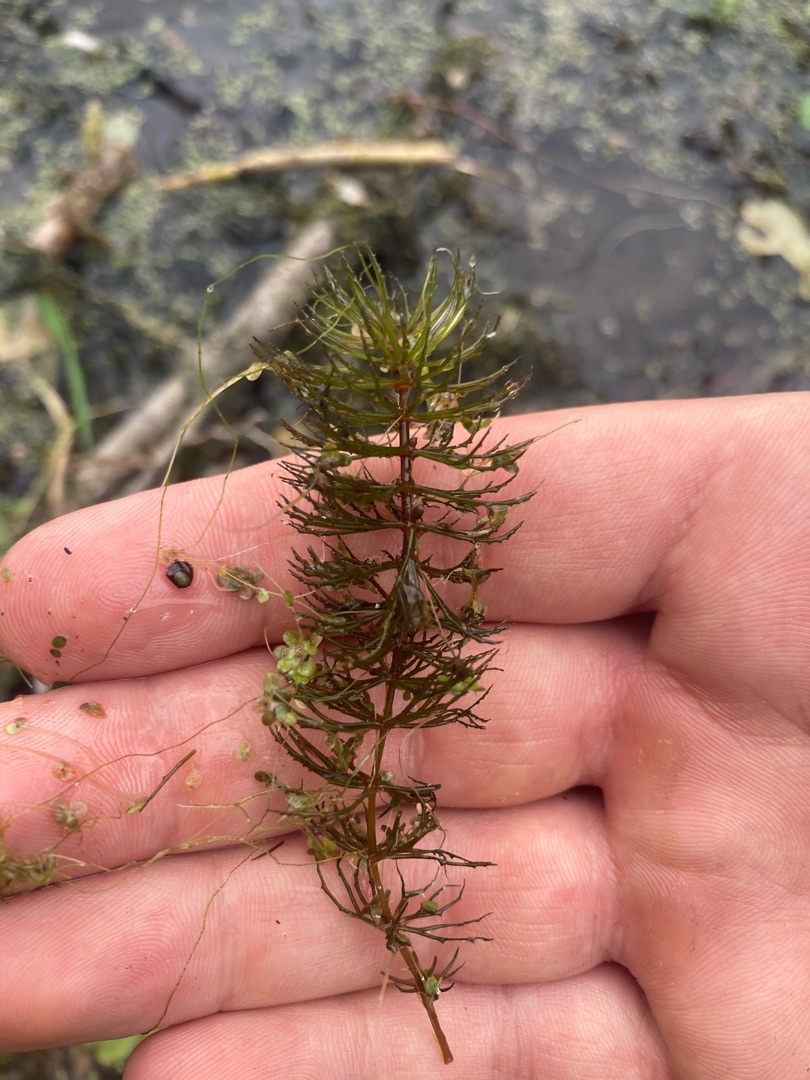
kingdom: Plantae
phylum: Tracheophyta
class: Magnoliopsida
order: Ceratophyllales
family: Ceratophyllaceae
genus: Ceratophyllum
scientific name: Ceratophyllum demersum
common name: Tornfrøet hornblad
